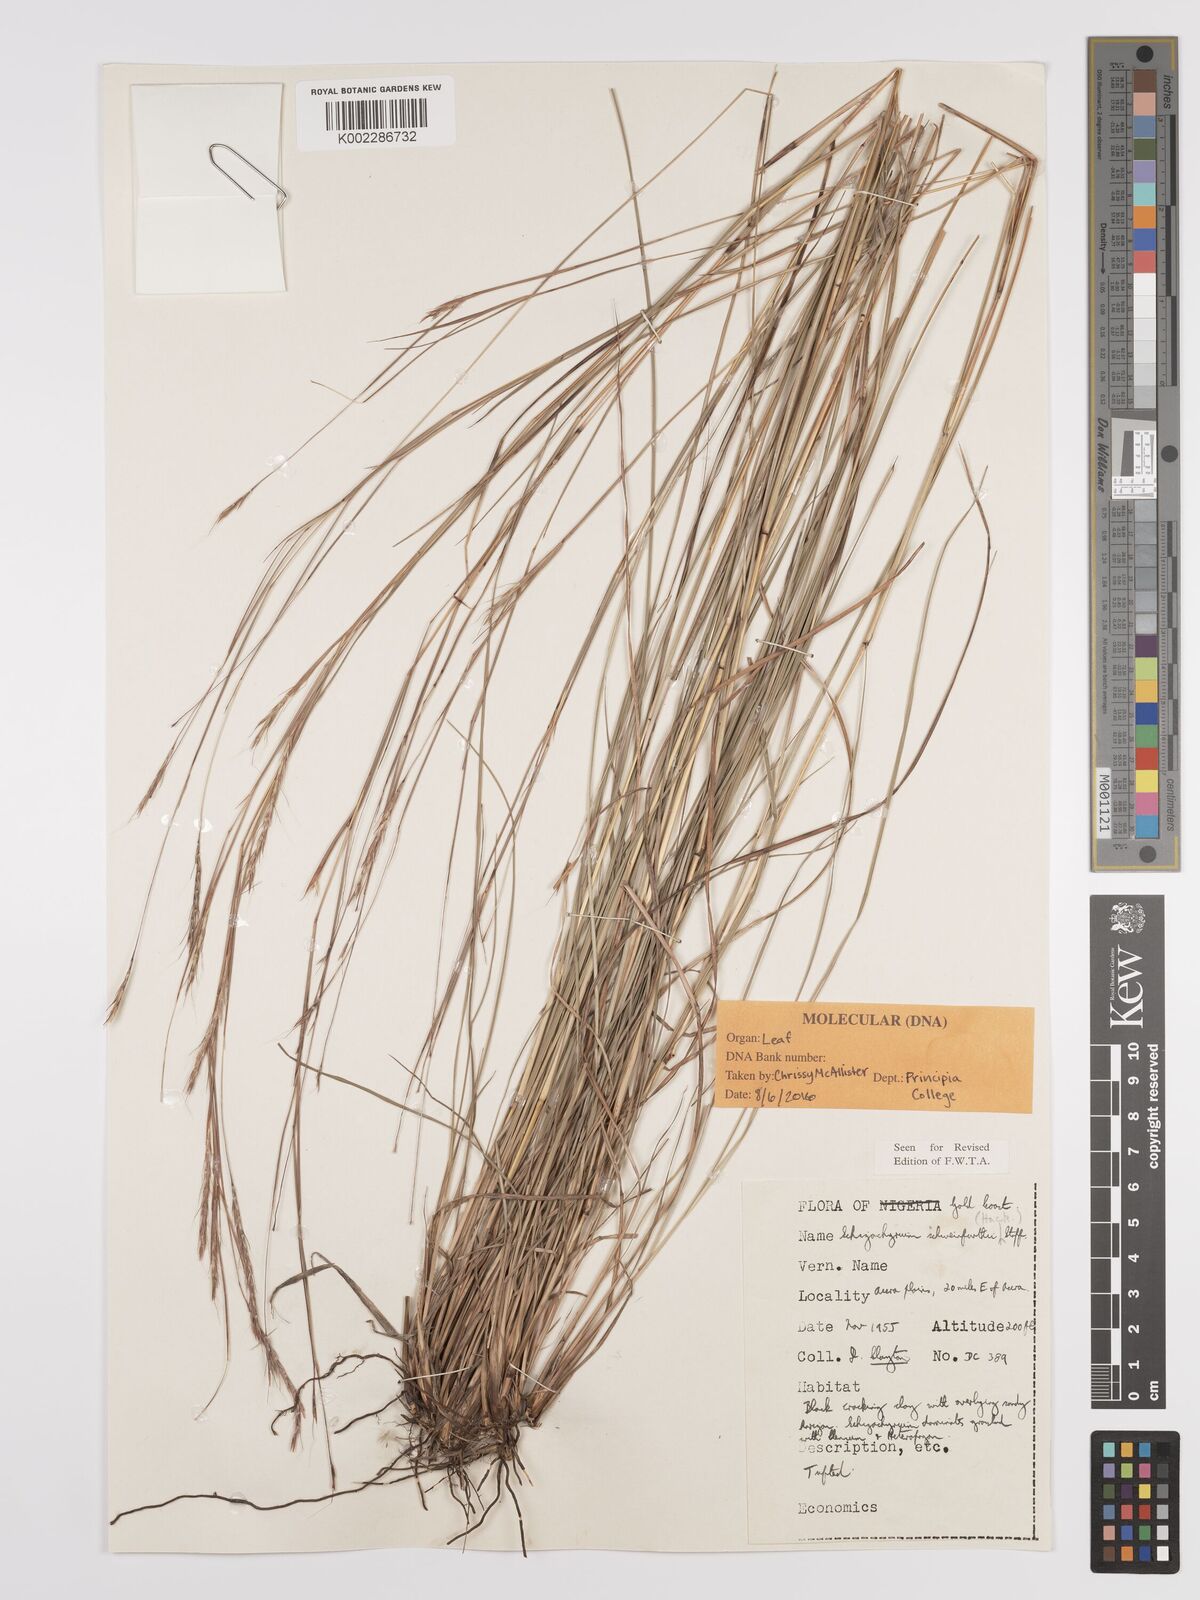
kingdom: Plantae
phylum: Tracheophyta
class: Liliopsida
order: Poales
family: Poaceae
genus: Andropogon
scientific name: Andropogon schweinfurthii
